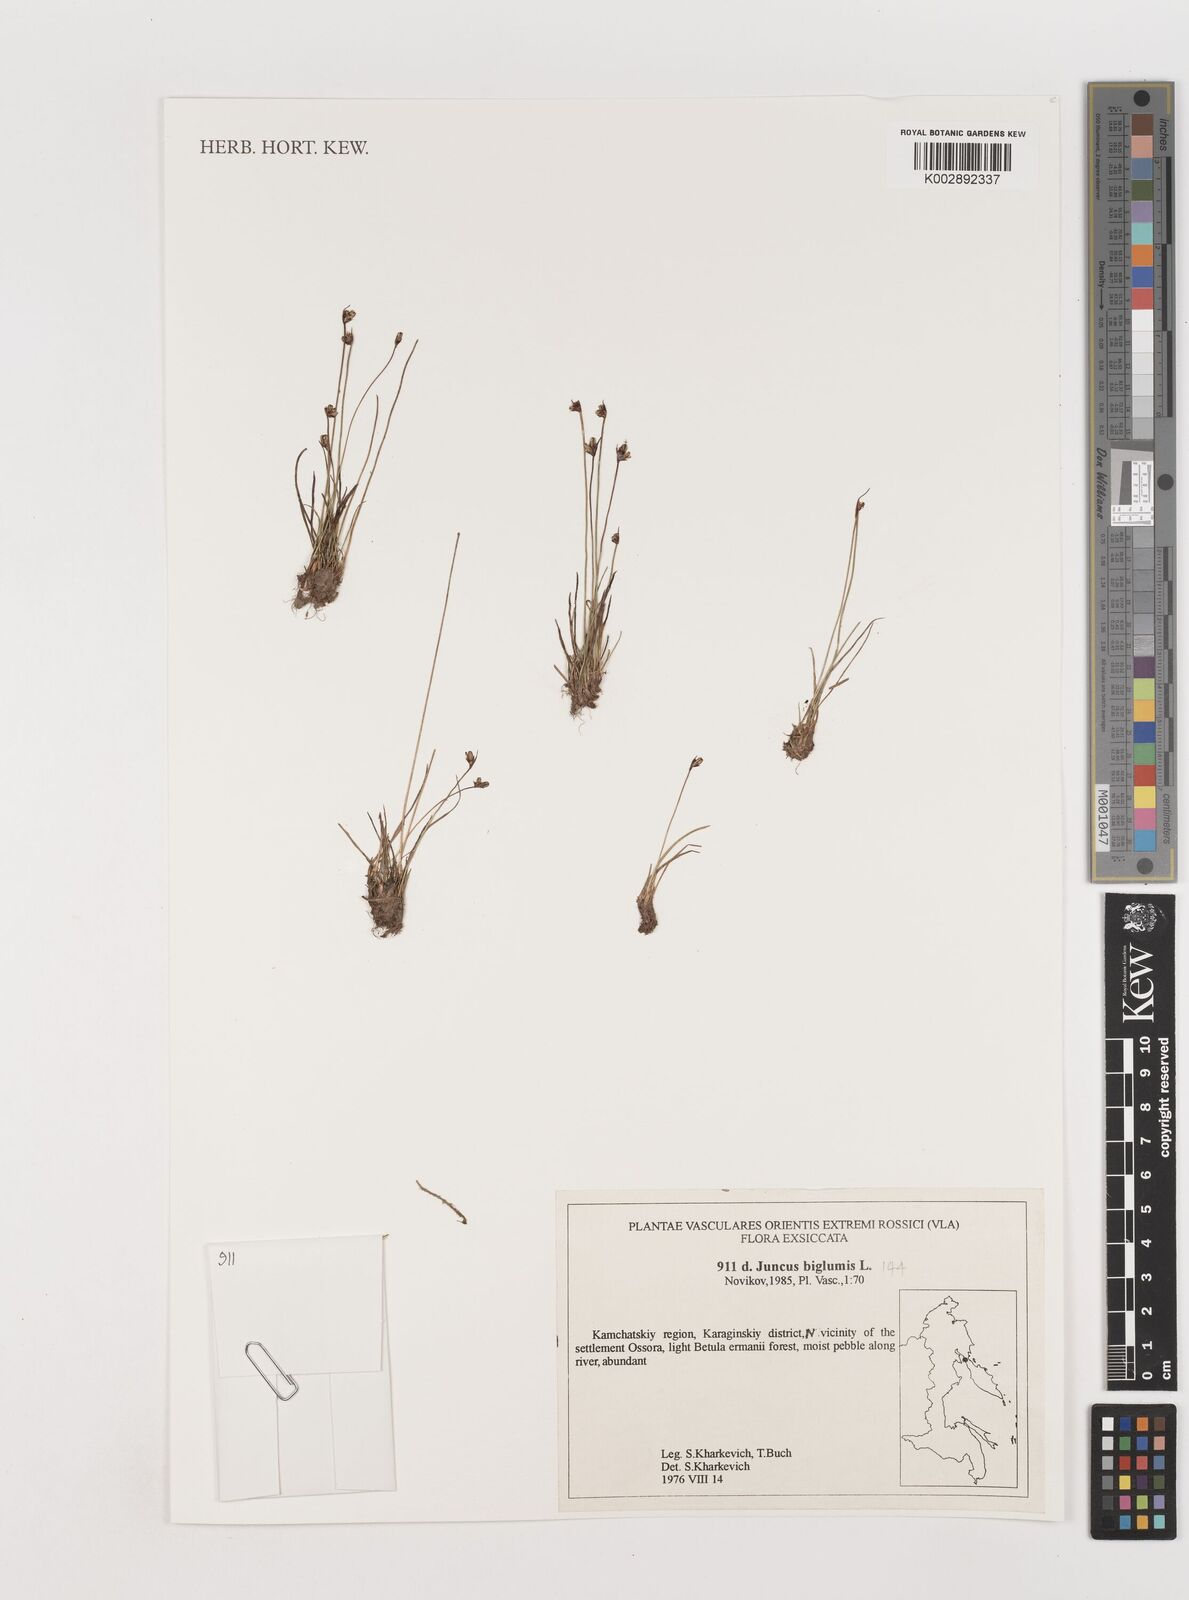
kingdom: Plantae
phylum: Tracheophyta
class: Liliopsida
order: Poales
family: Juncaceae
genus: Juncus
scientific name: Juncus biglumis
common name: Two-flowered rush
